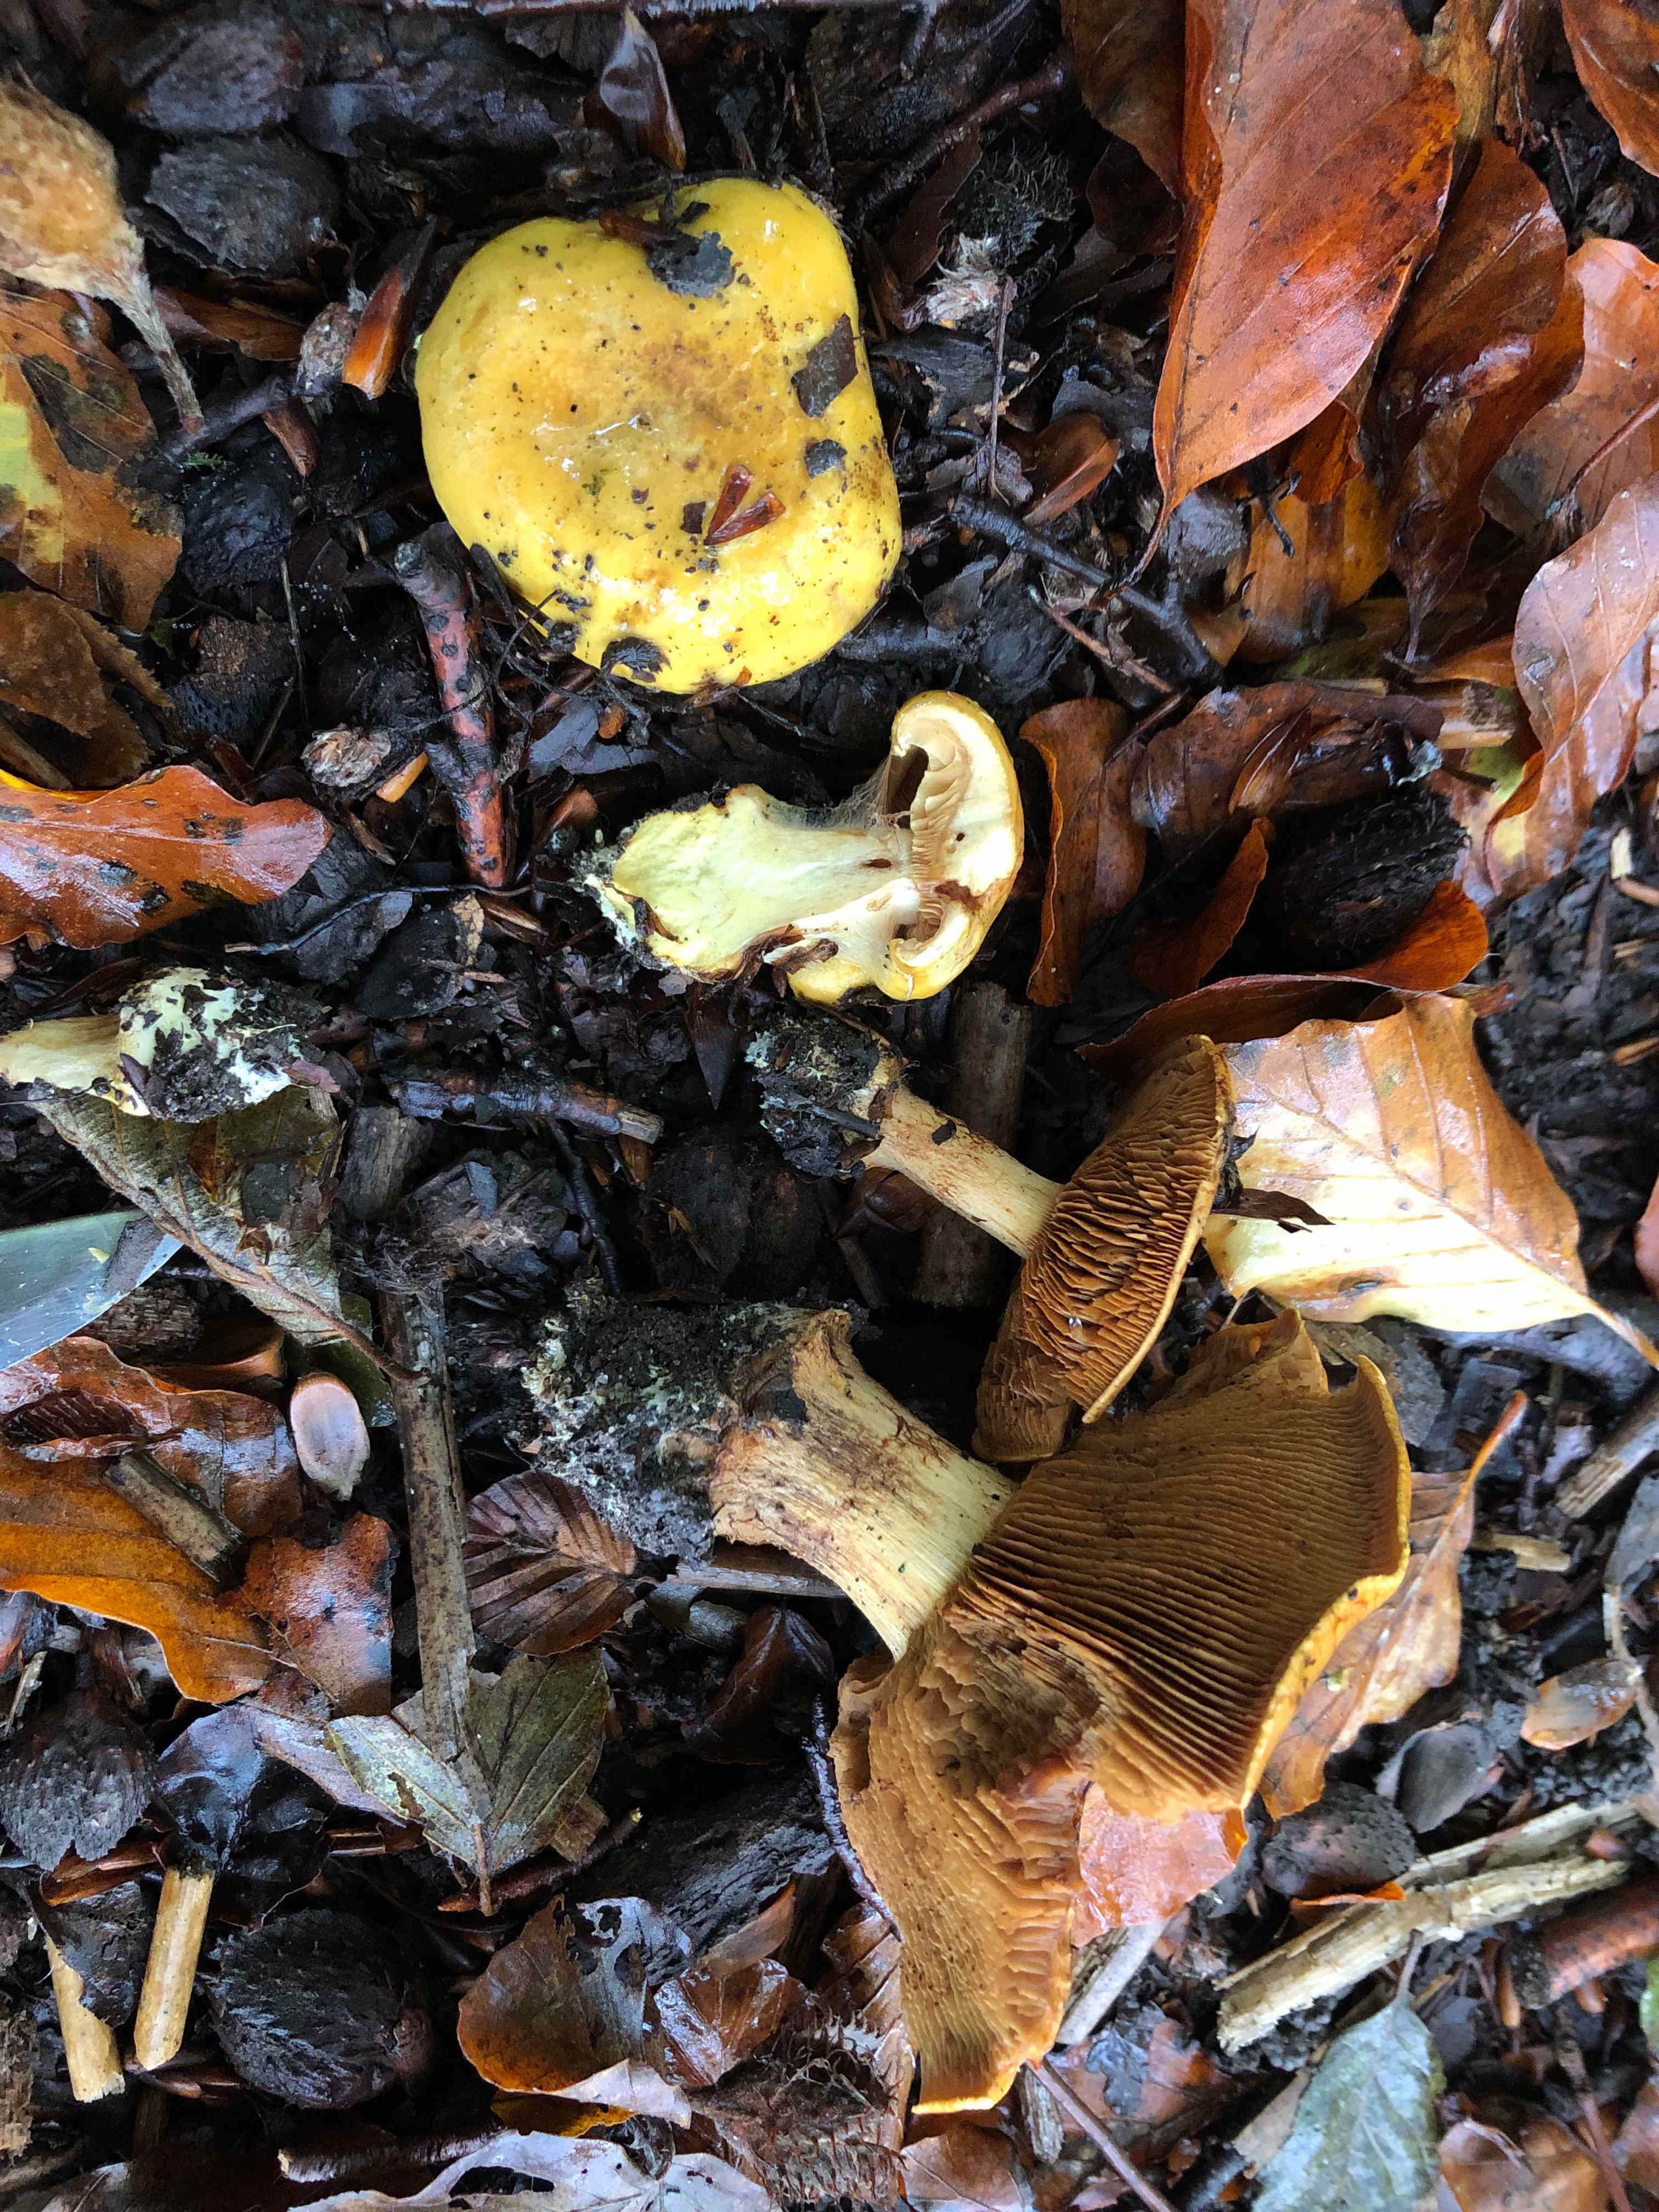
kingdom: Fungi
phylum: Basidiomycota
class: Agaricomycetes
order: Agaricales
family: Cortinariaceae
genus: Calonarius
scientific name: Calonarius olearioides
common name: safran-slørhat
